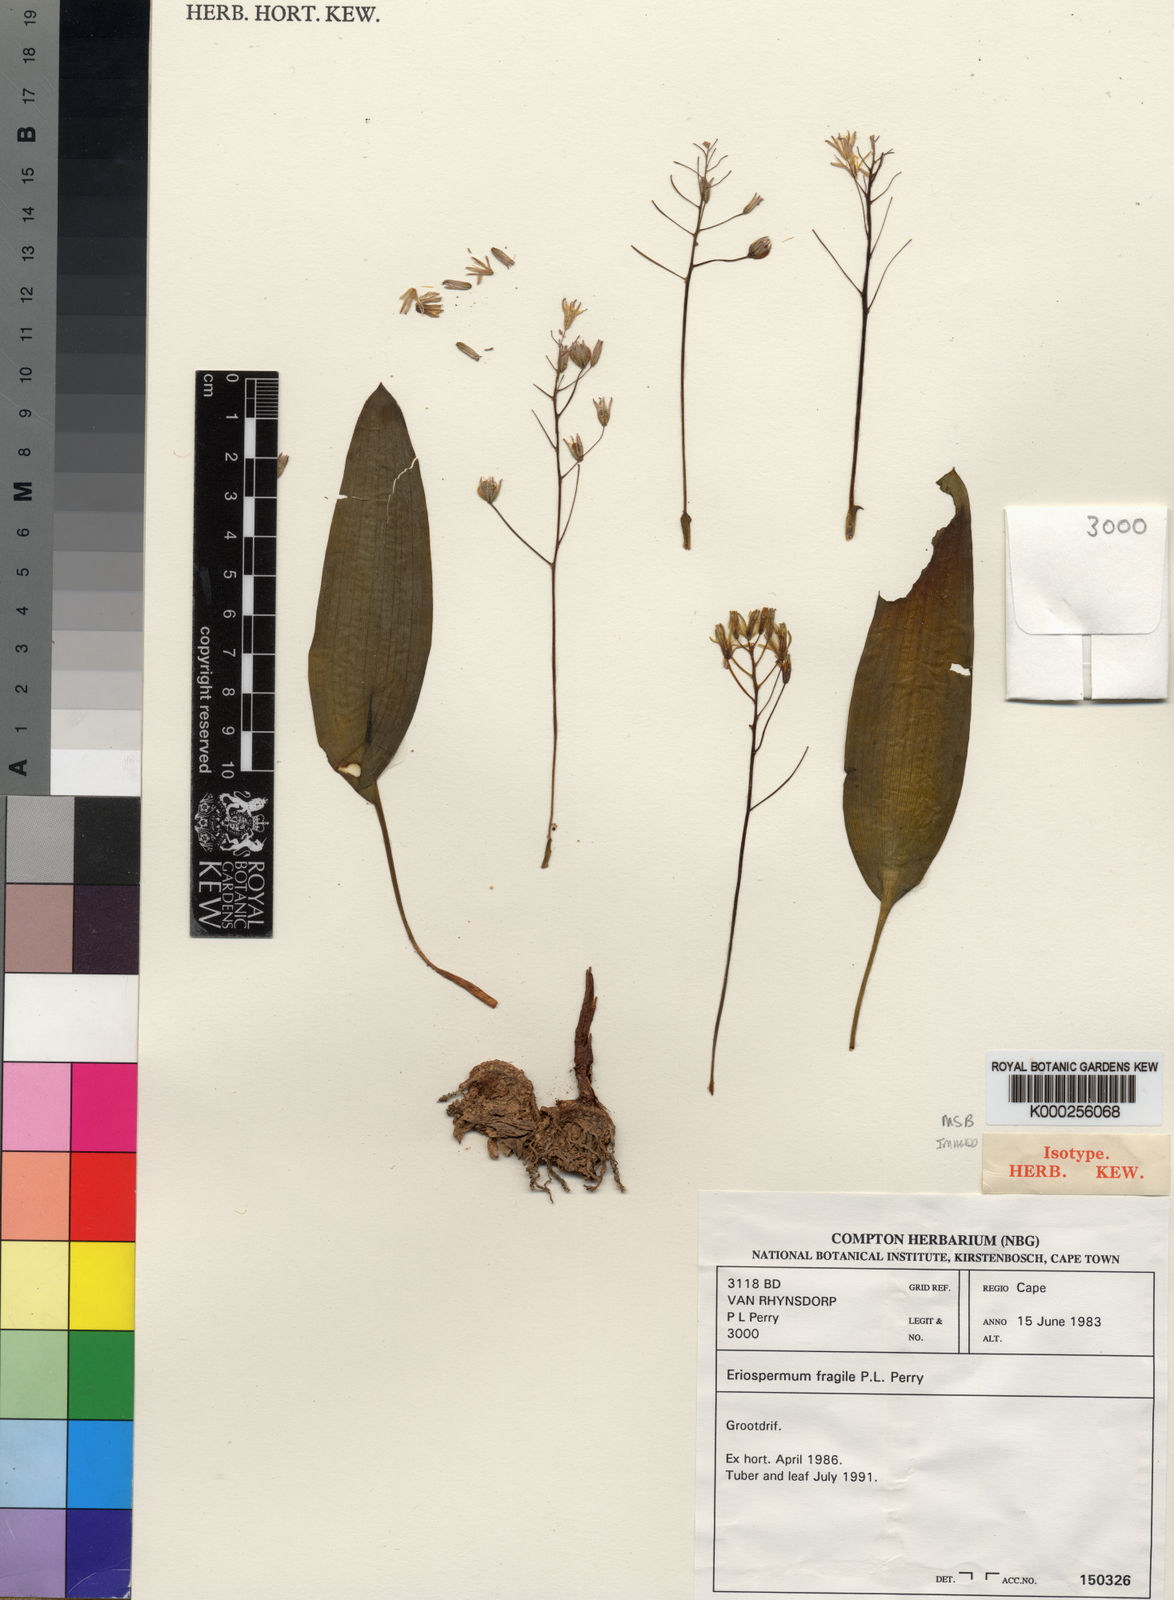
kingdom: Plantae
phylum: Tracheophyta
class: Liliopsida
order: Asparagales
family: Asparagaceae
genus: Eriospermum
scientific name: Eriospermum fragile
